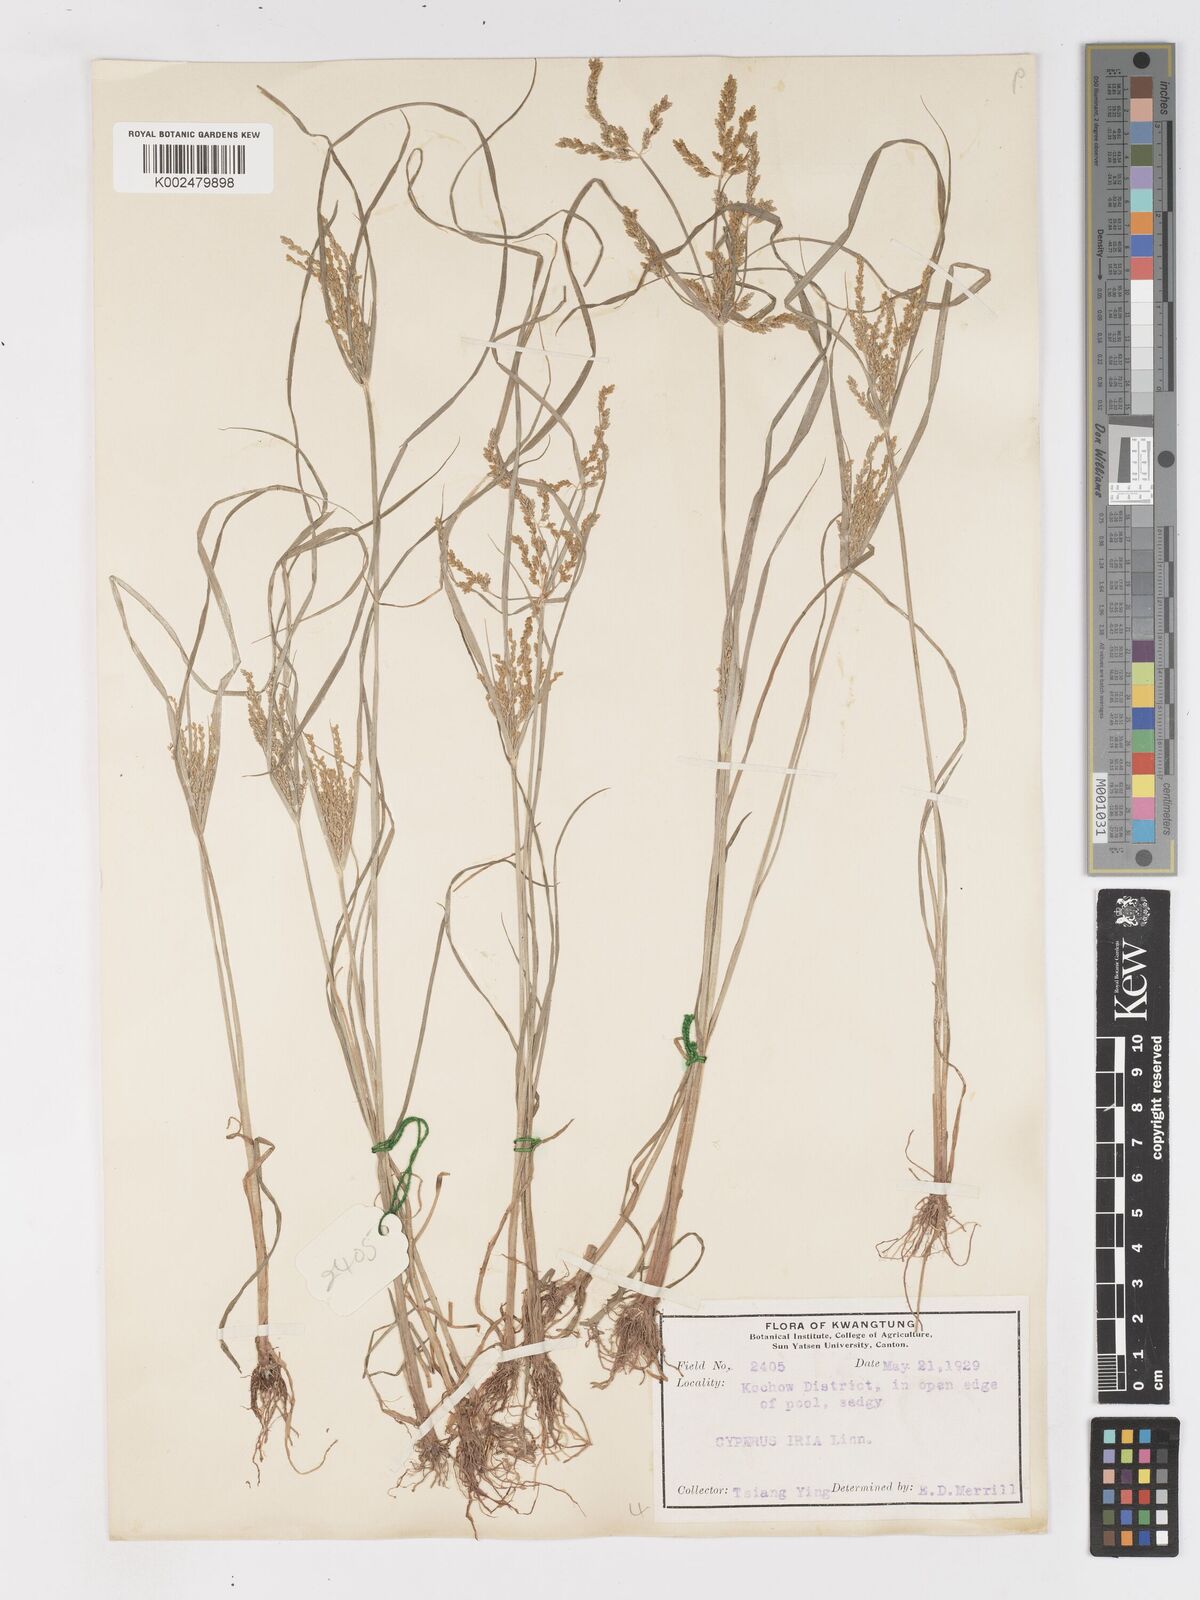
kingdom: Plantae
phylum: Tracheophyta
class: Liliopsida
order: Poales
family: Cyperaceae
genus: Cyperus
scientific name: Cyperus iria
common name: Ricefield flatsedge
